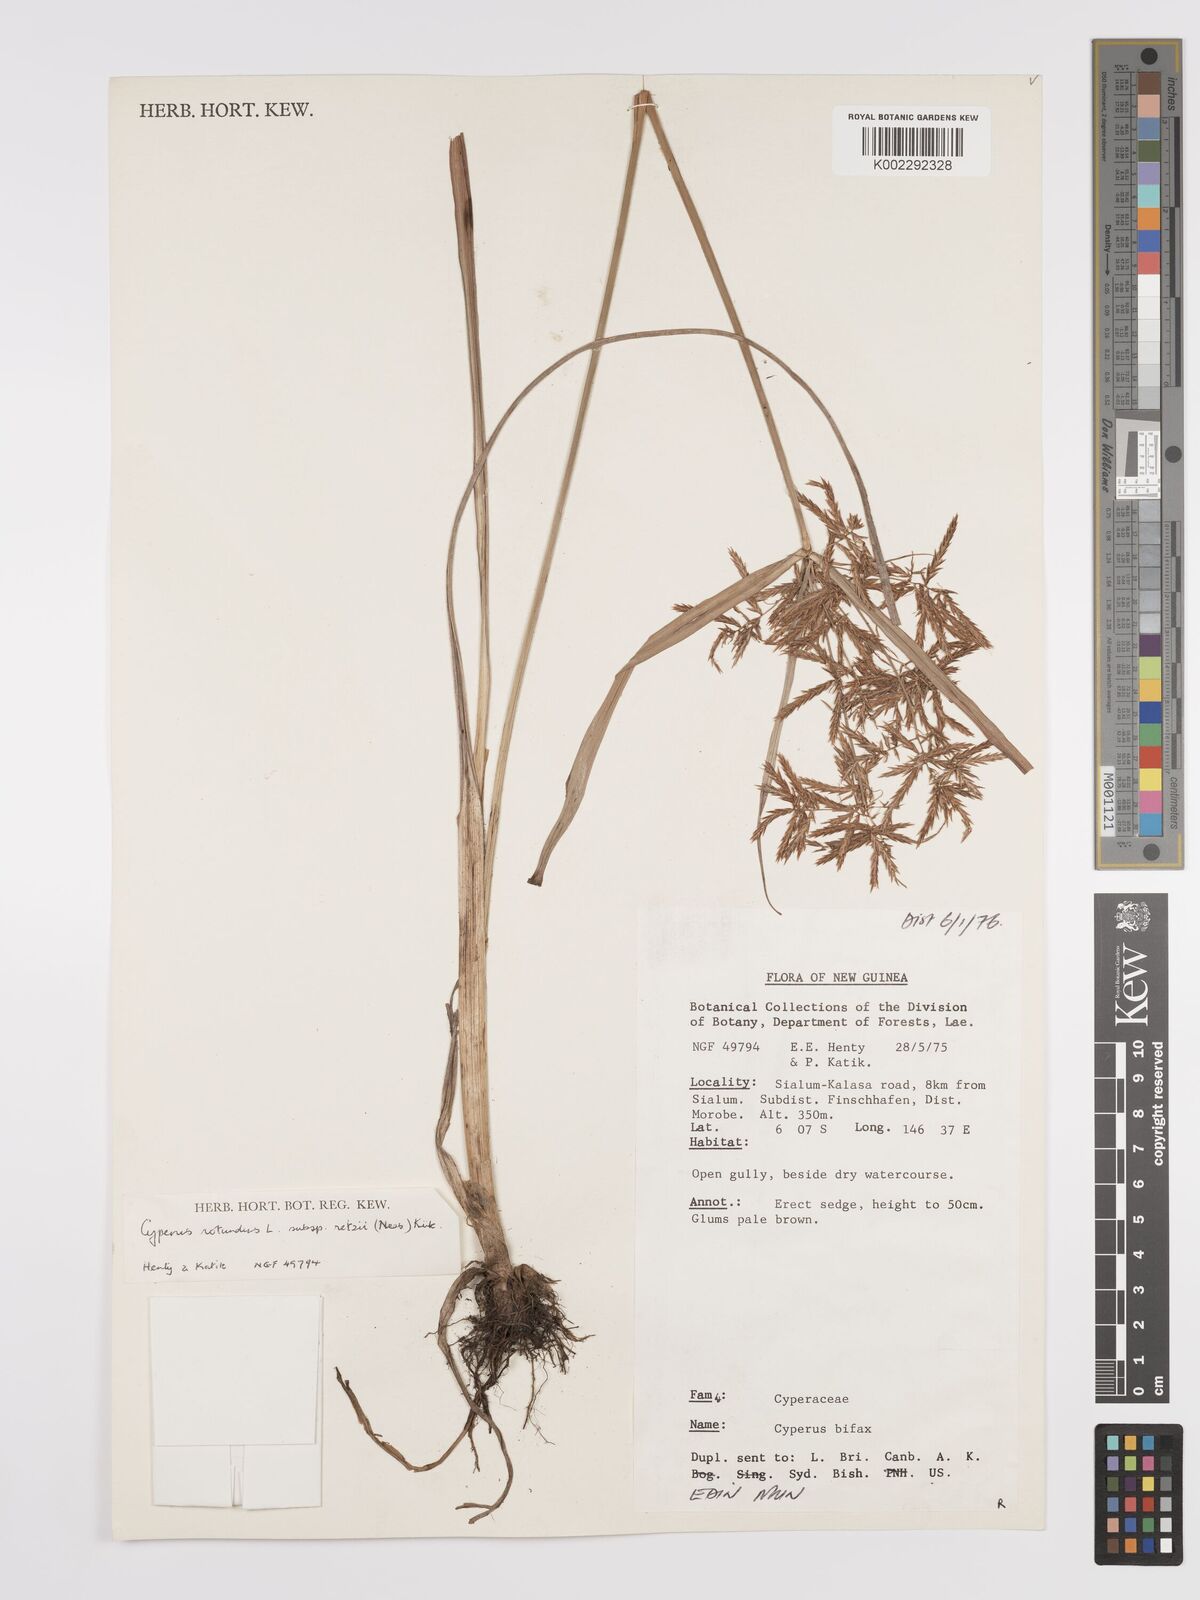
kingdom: Plantae
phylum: Tracheophyta
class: Liliopsida
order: Poales
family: Cyperaceae
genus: Cyperus
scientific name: Cyperus bifax
